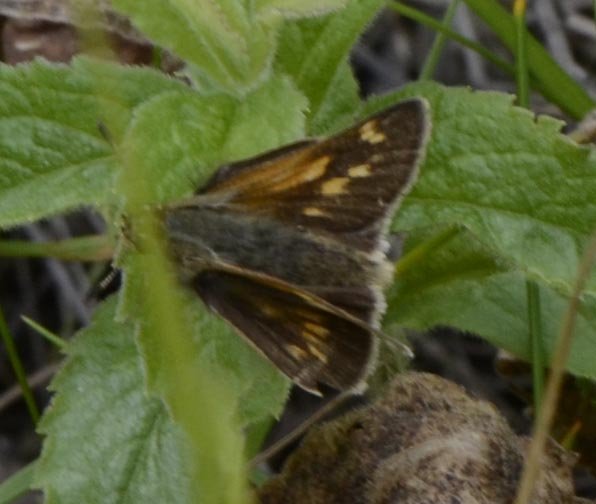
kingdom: Animalia
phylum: Arthropoda
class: Insecta
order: Lepidoptera
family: Hesperiidae
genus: Polites
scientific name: Polites
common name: Long Dash Skipper
